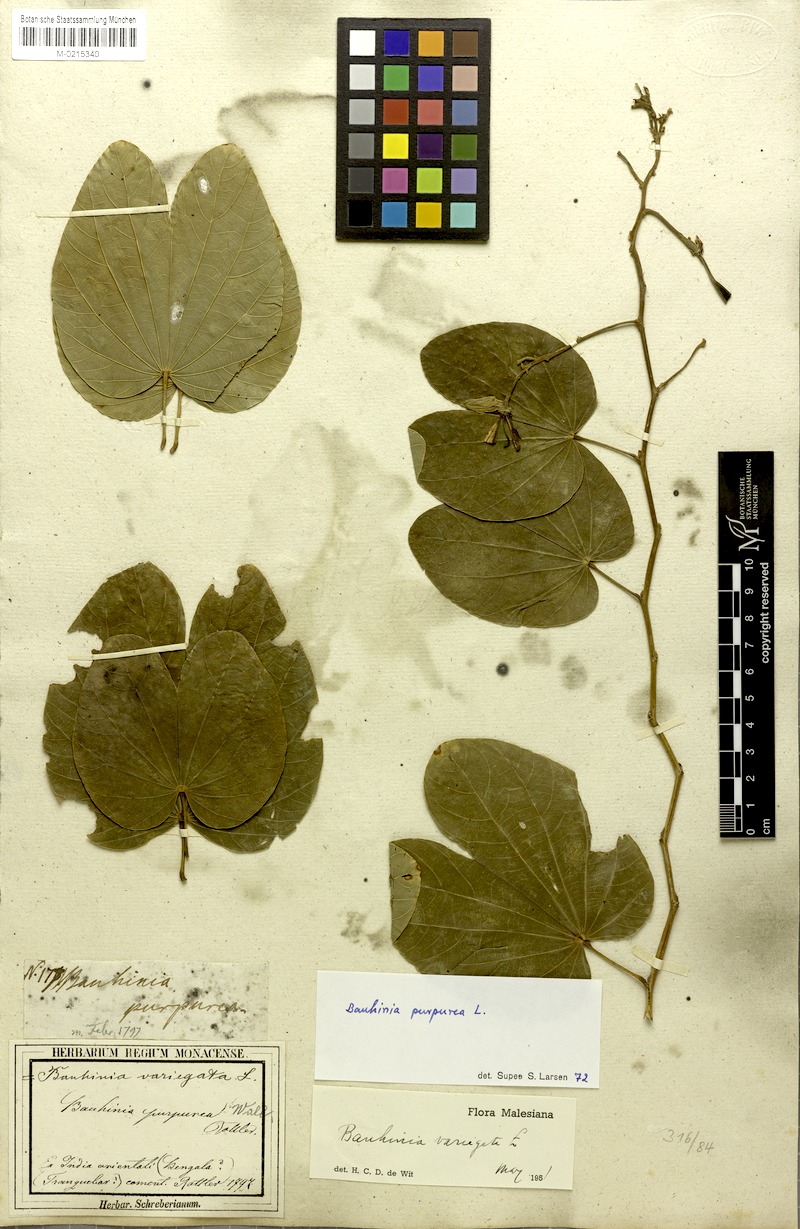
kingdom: Plantae
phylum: Tracheophyta
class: Magnoliopsida
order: Fabales
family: Fabaceae
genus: Bauhinia
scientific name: Bauhinia purpurea
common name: Butterfly-tree
